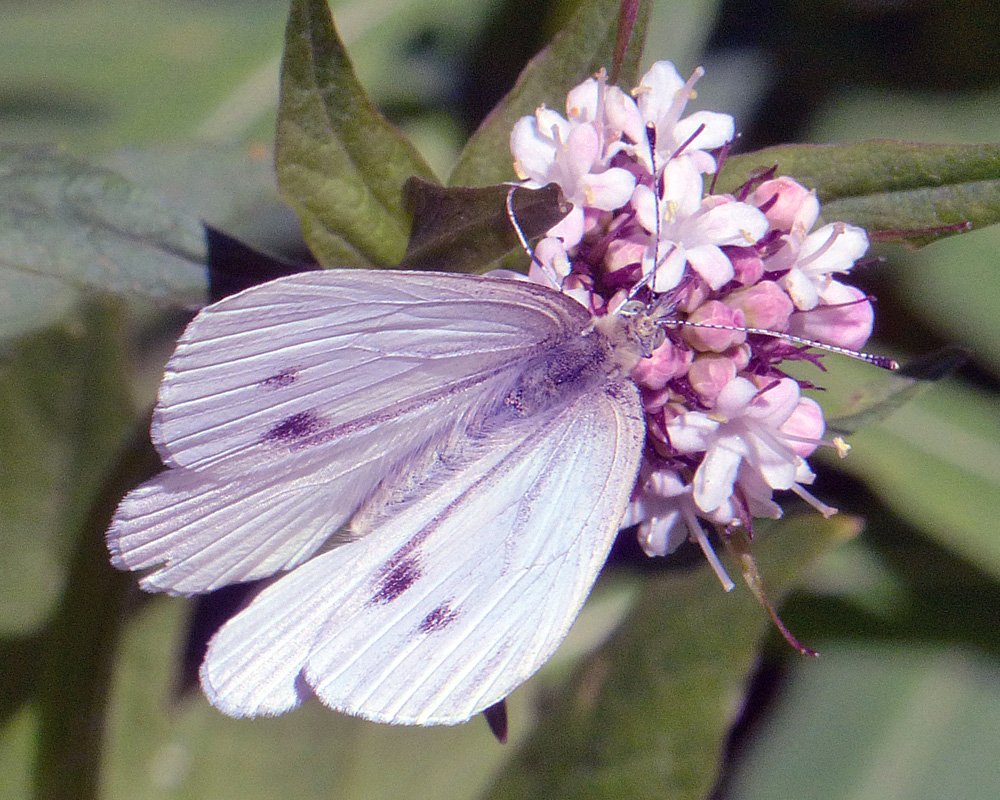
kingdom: Animalia
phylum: Arthropoda
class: Insecta
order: Lepidoptera
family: Pieridae
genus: Pieris
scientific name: Pieris rapae
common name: Cabbage White
